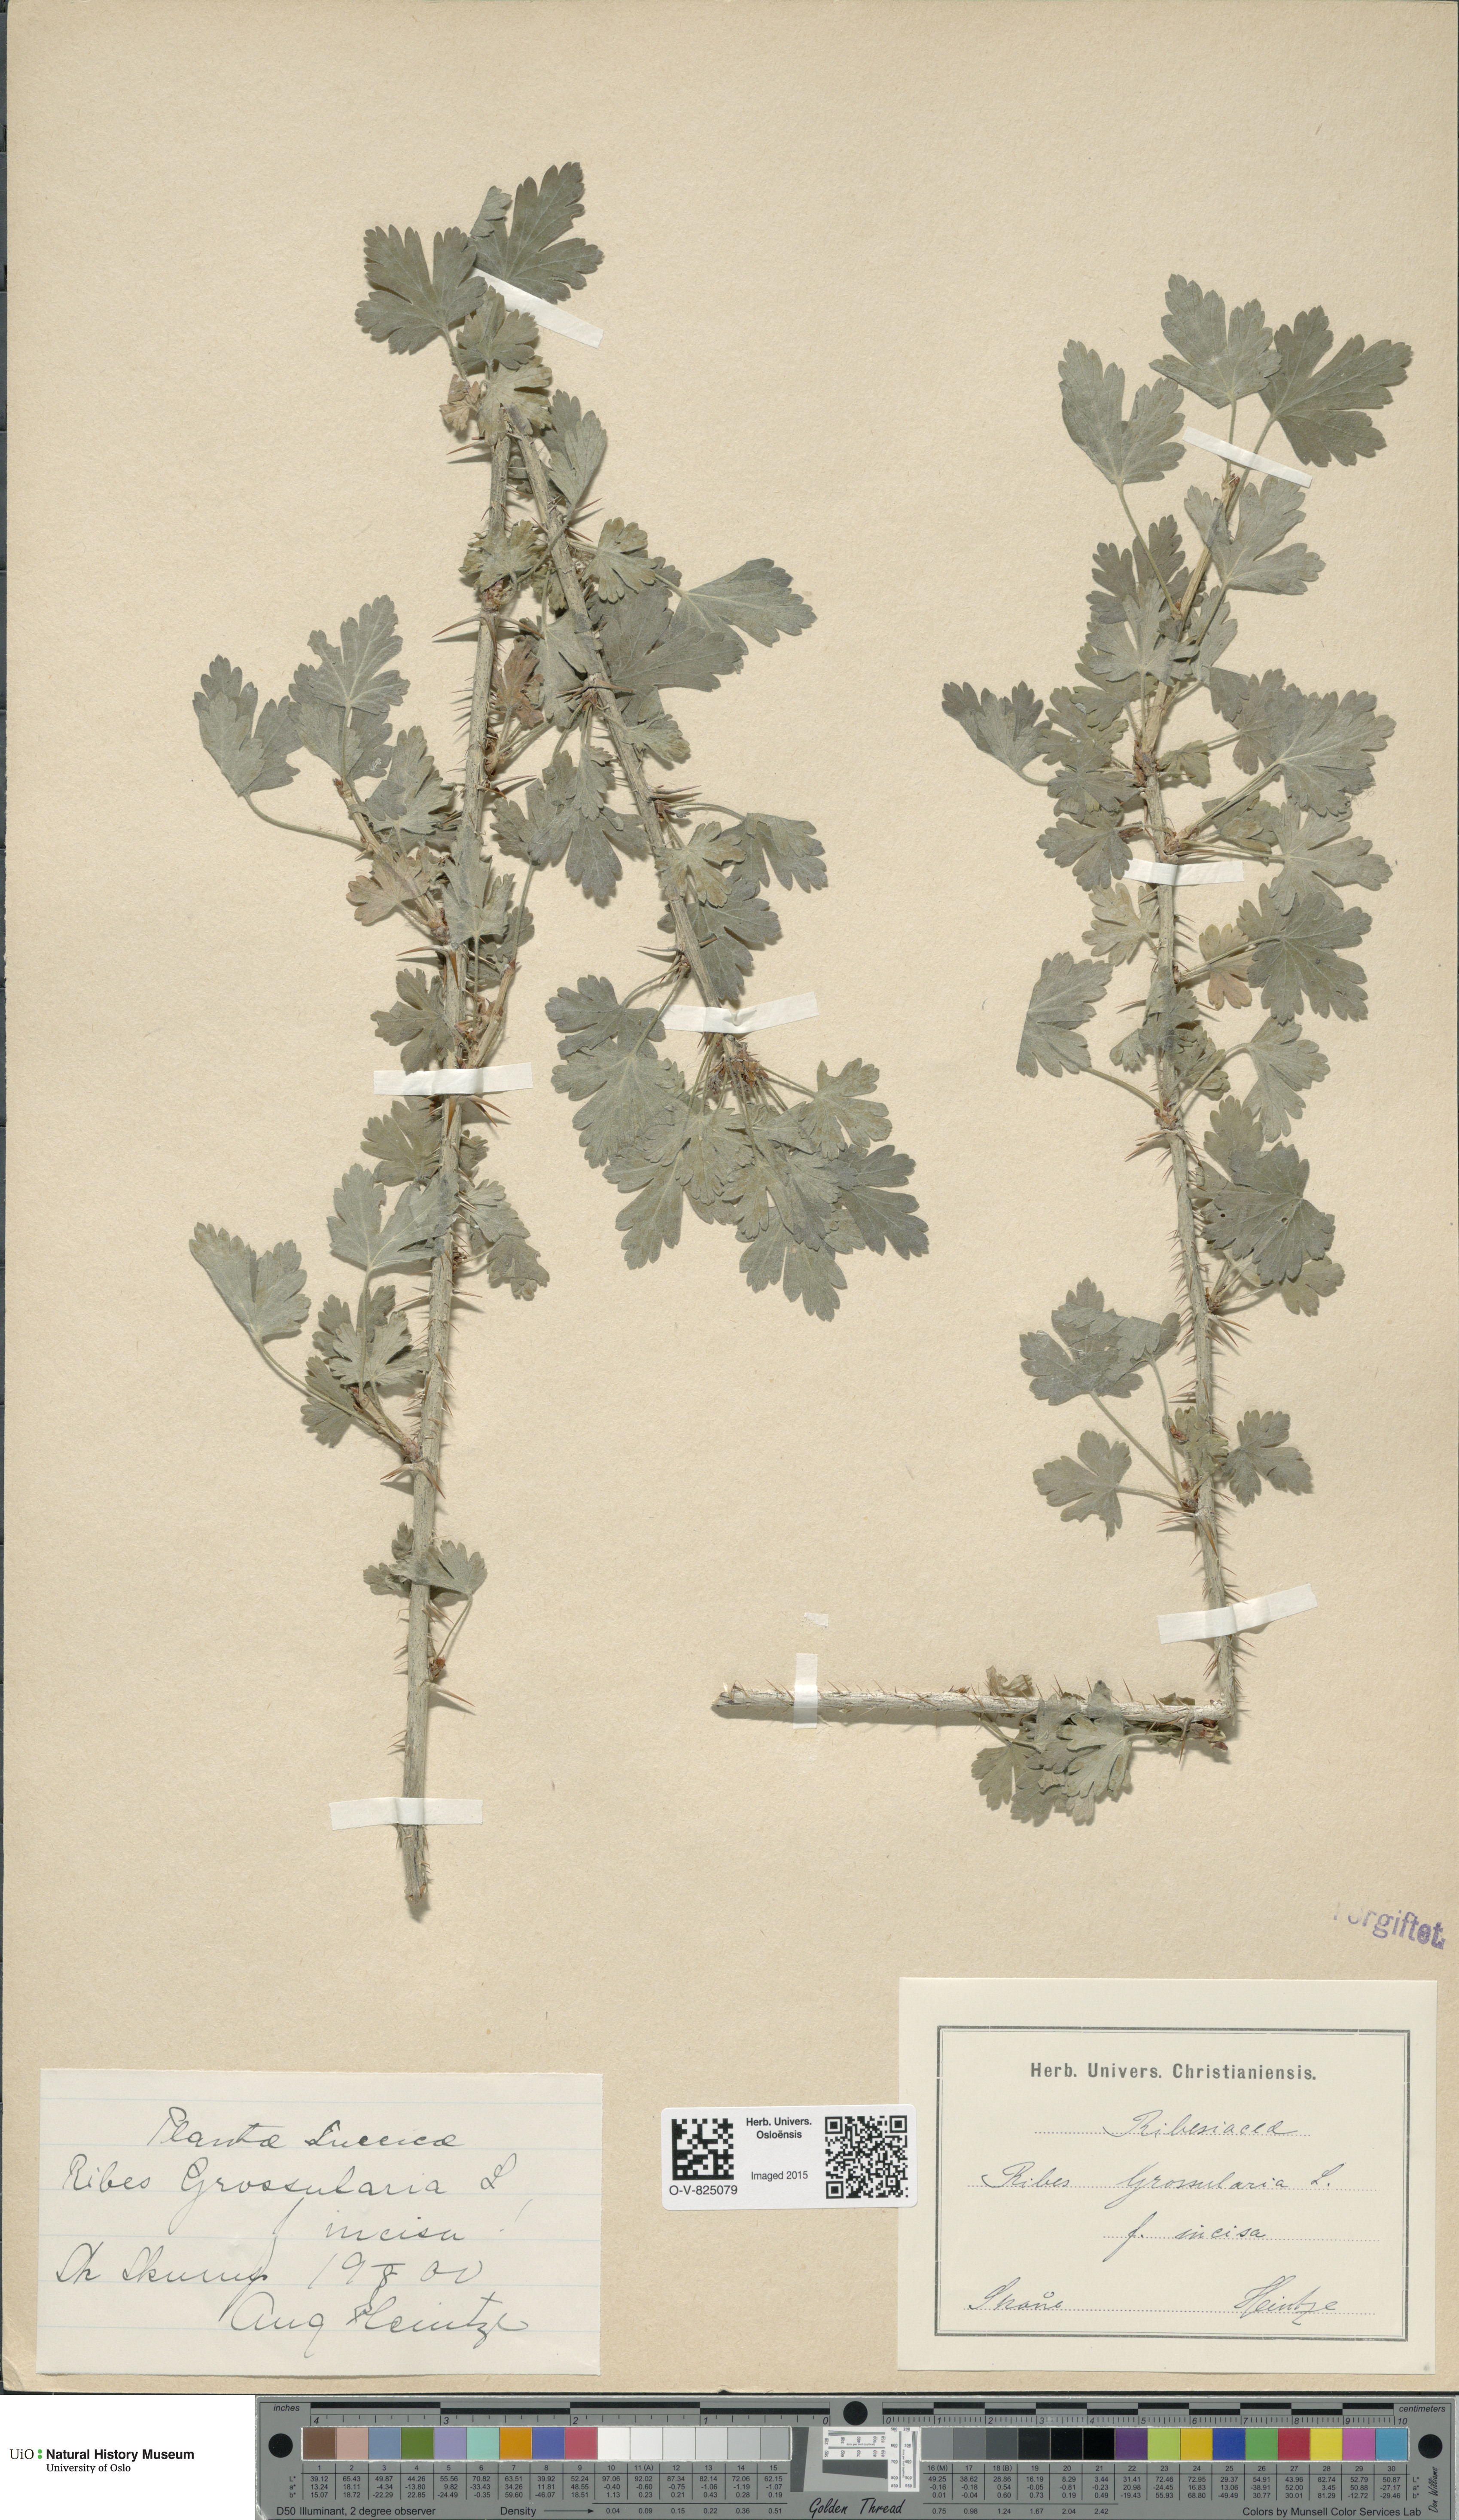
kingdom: Plantae
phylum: Tracheophyta
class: Magnoliopsida
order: Saxifragales
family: Grossulariaceae
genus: Ribes
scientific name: Ribes uva-crispa
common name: Gooseberry
